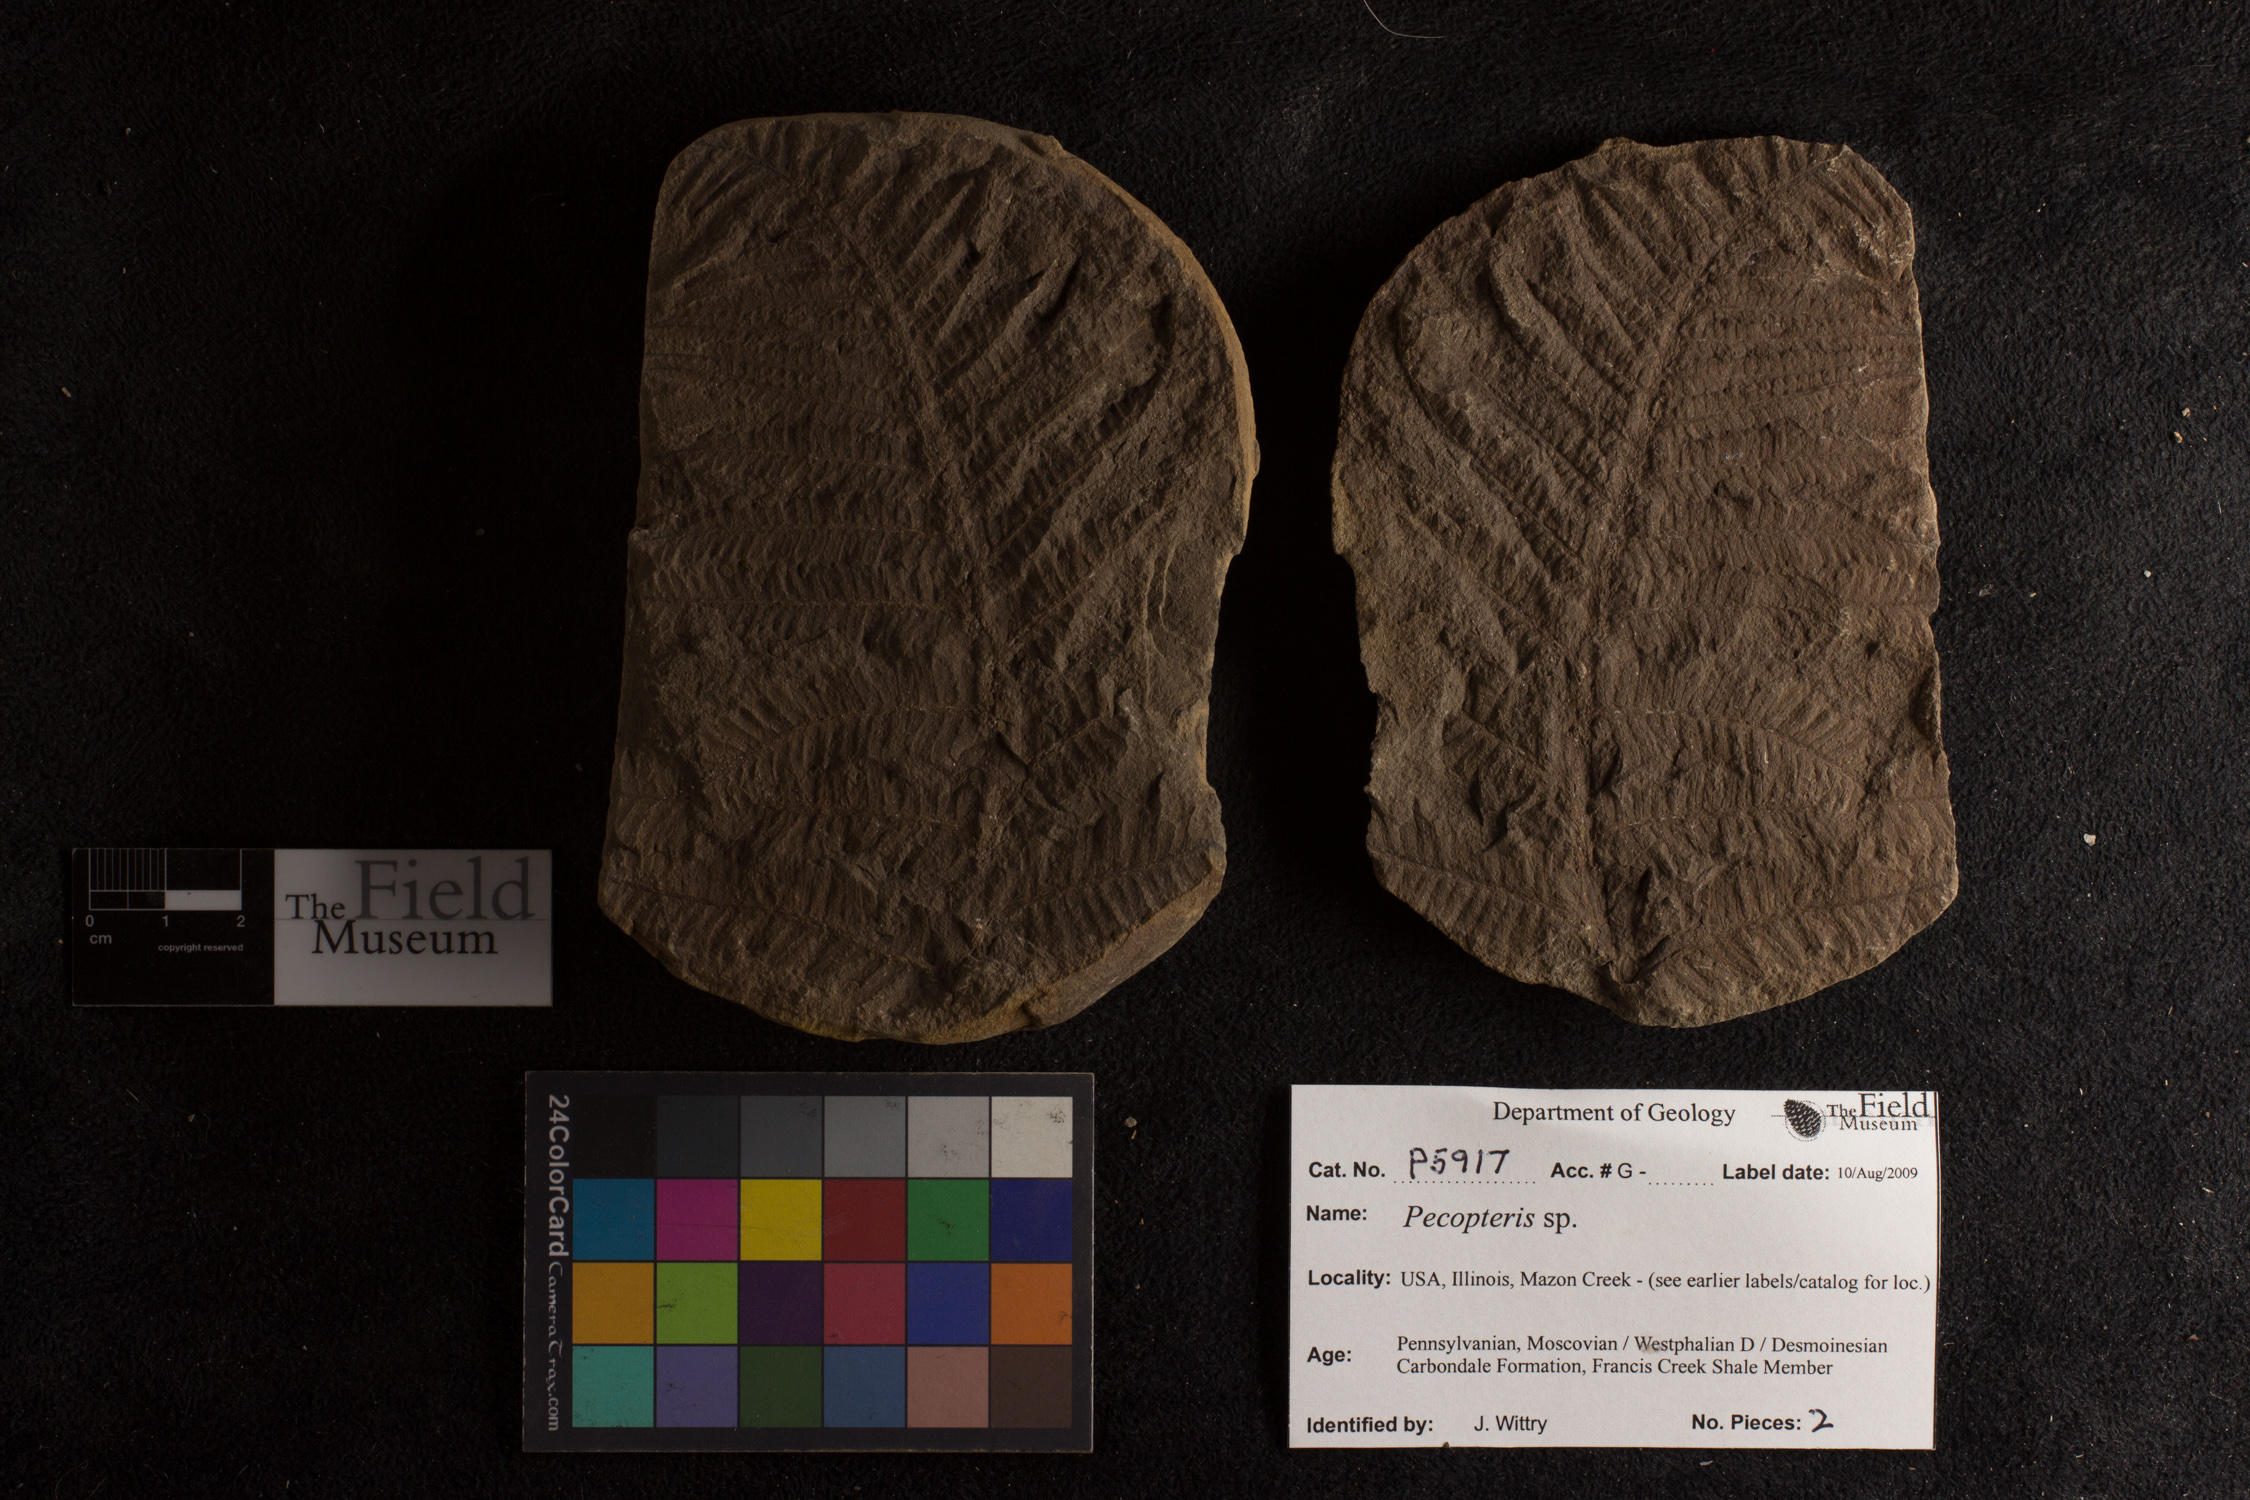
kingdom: Plantae
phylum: Tracheophyta
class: Polypodiopsida
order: Marattiales
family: Asterothecaceae
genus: Pecopteris
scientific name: Pecopteris
